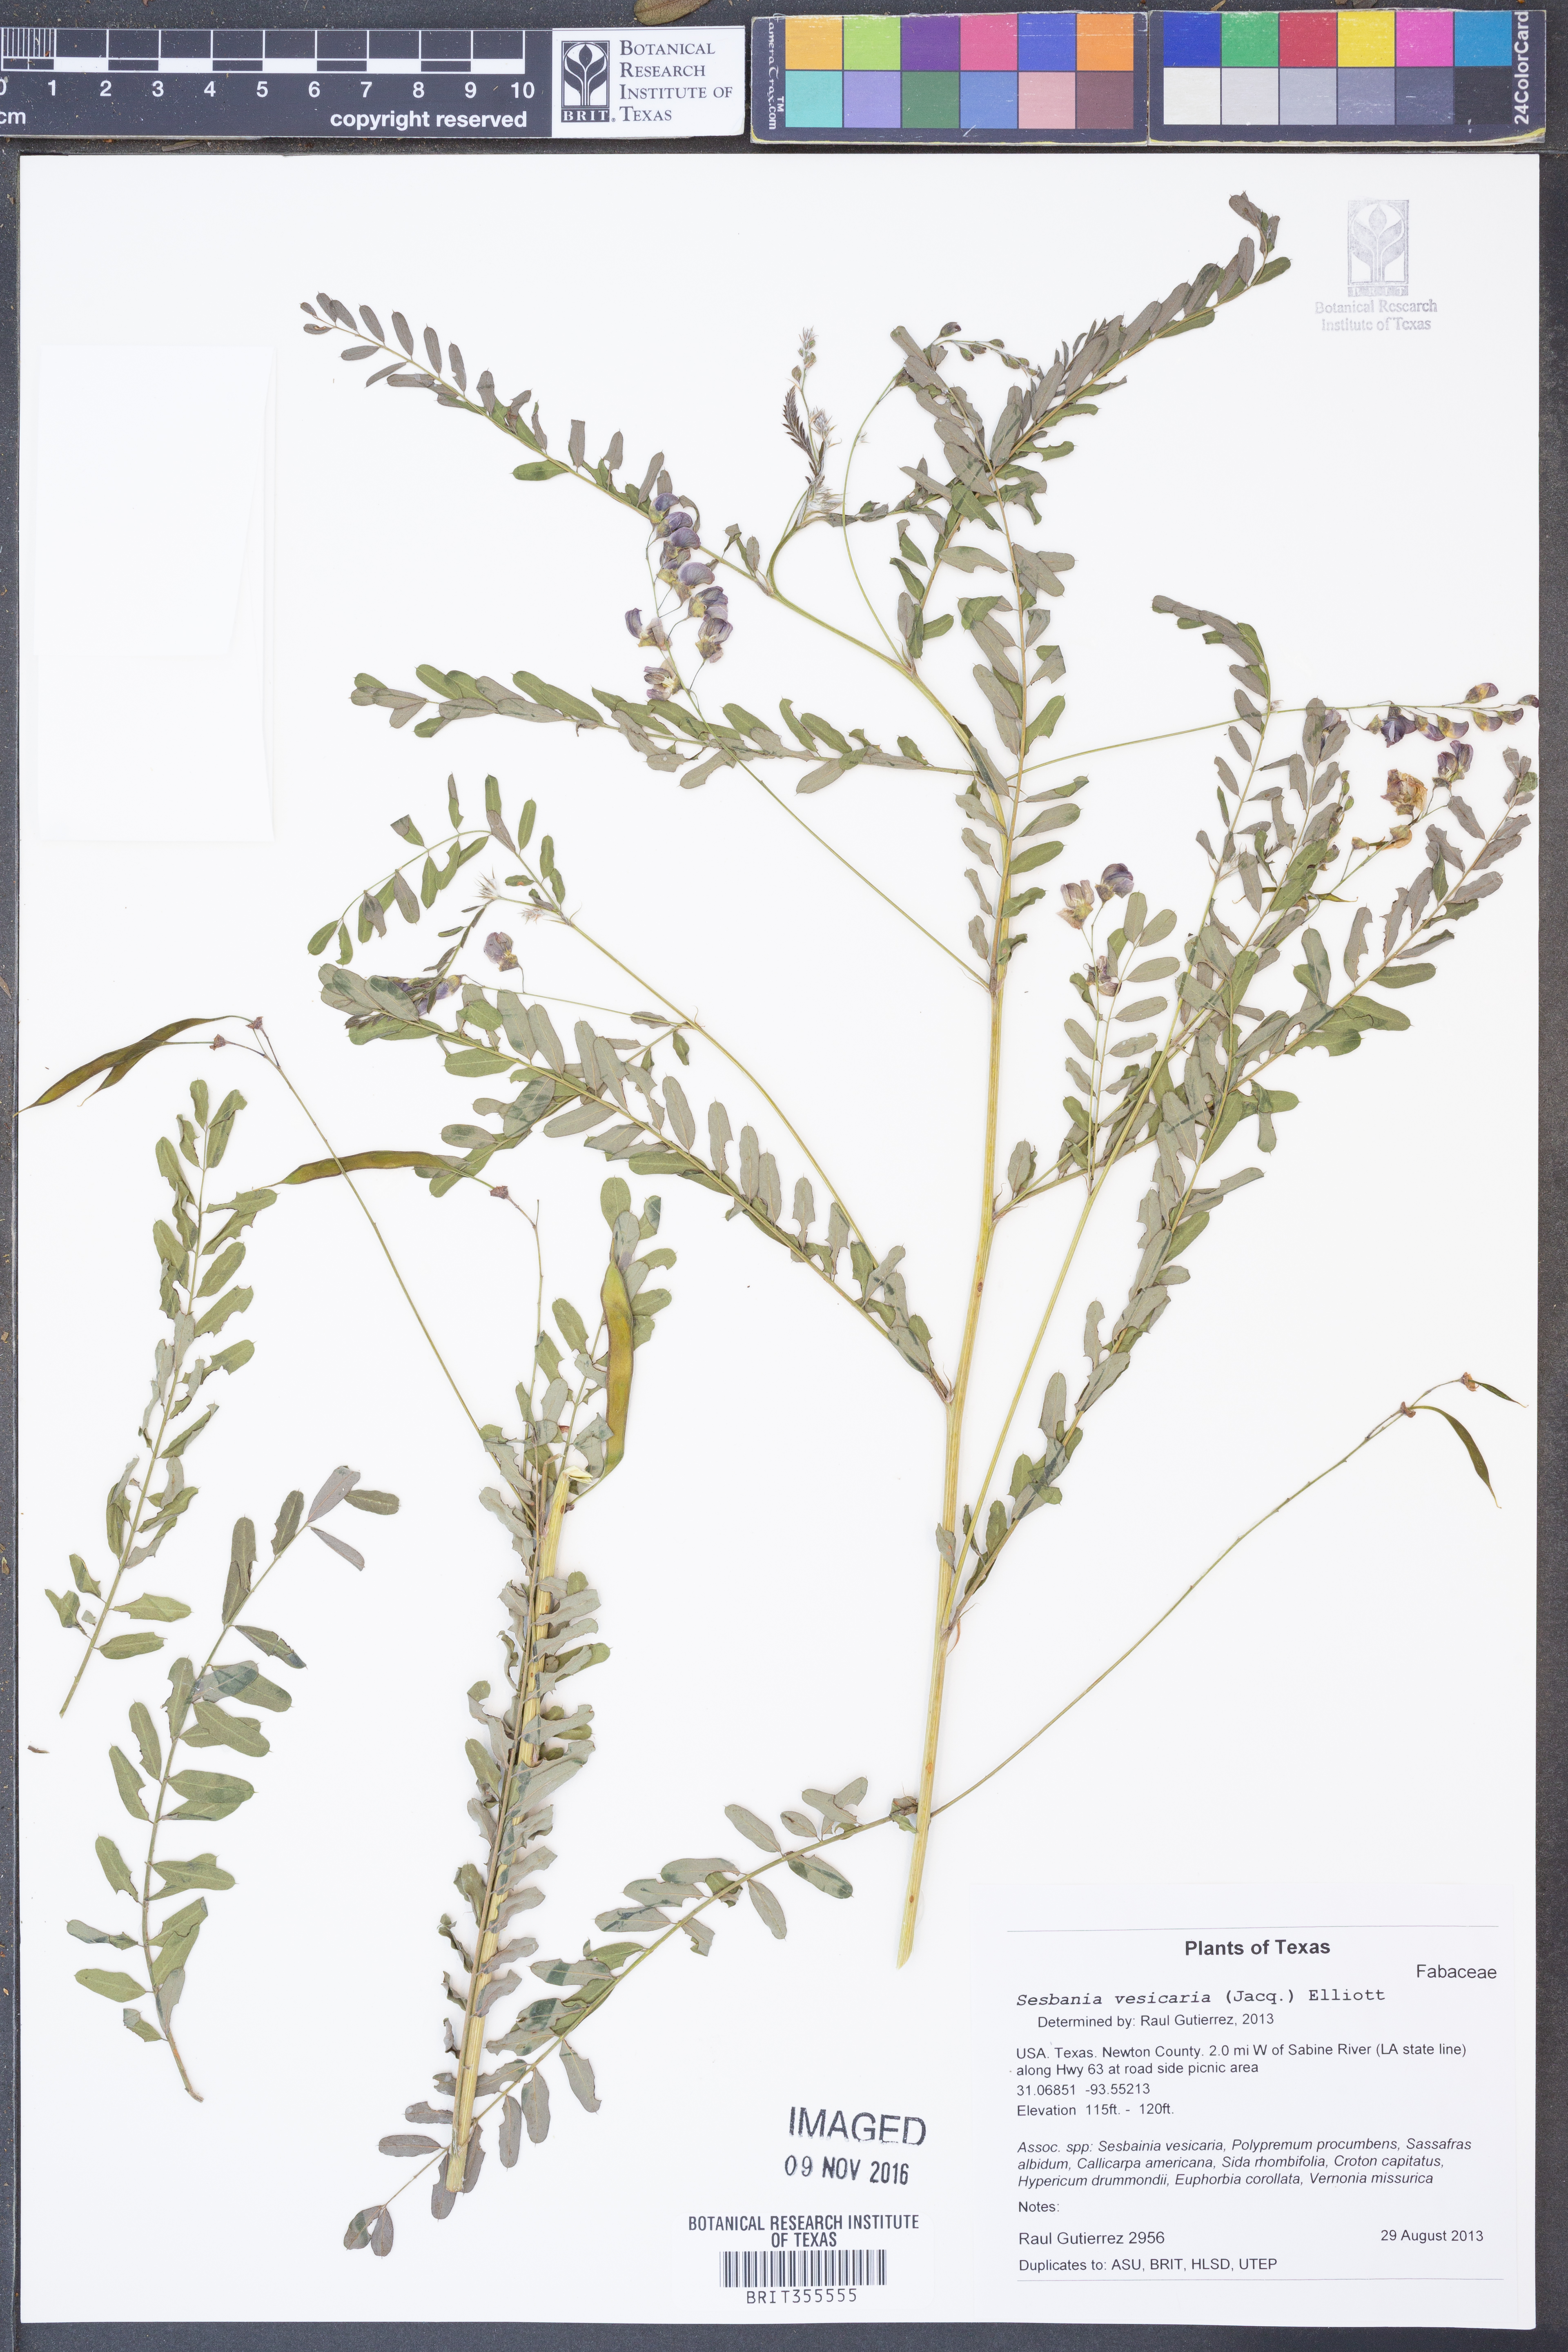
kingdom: Plantae
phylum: Tracheophyta
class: Magnoliopsida
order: Fabales
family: Fabaceae
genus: Sesbania
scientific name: Sesbania vesicaria
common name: Bagpod
